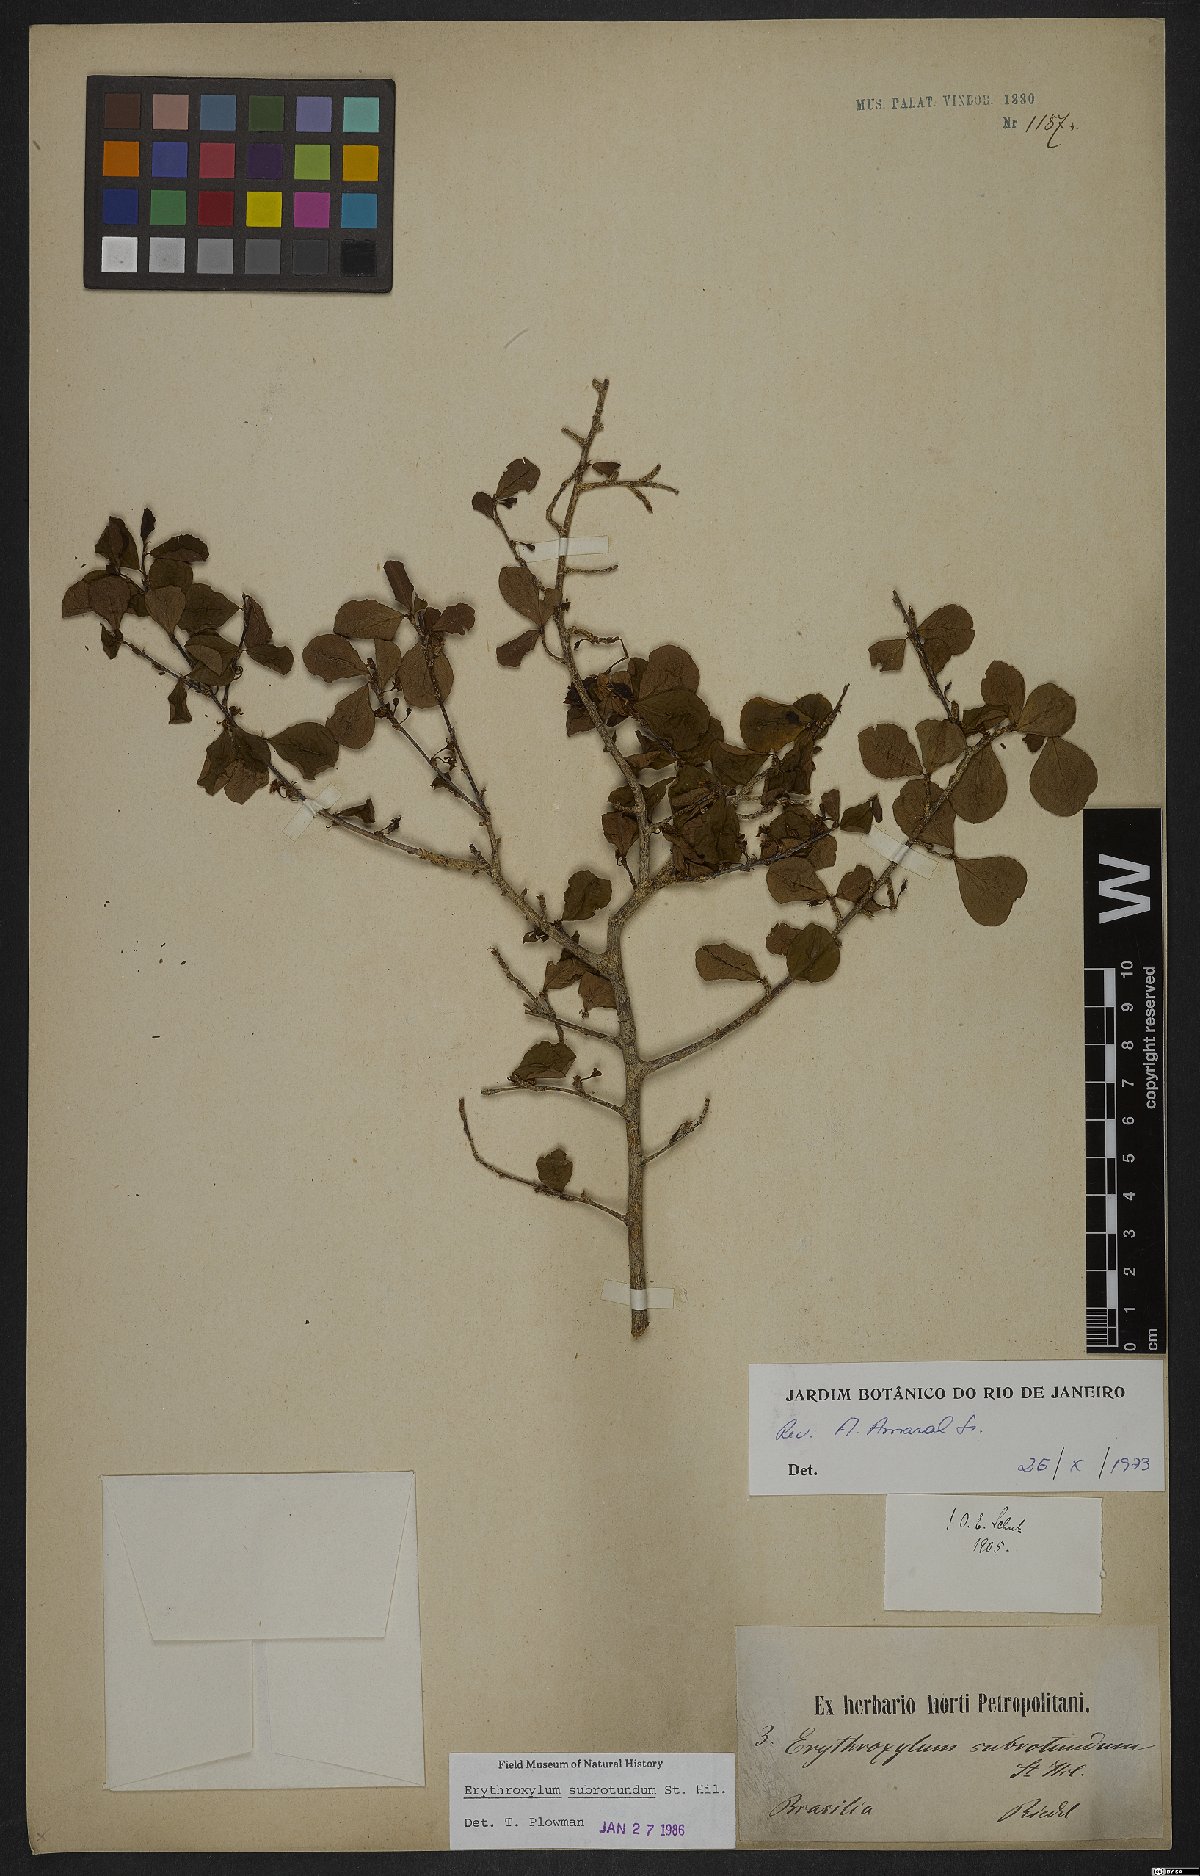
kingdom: Plantae
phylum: Tracheophyta
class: Magnoliopsida
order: Malpighiales
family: Erythroxylaceae
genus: Erythroxylum
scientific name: Erythroxylum subrotundum
